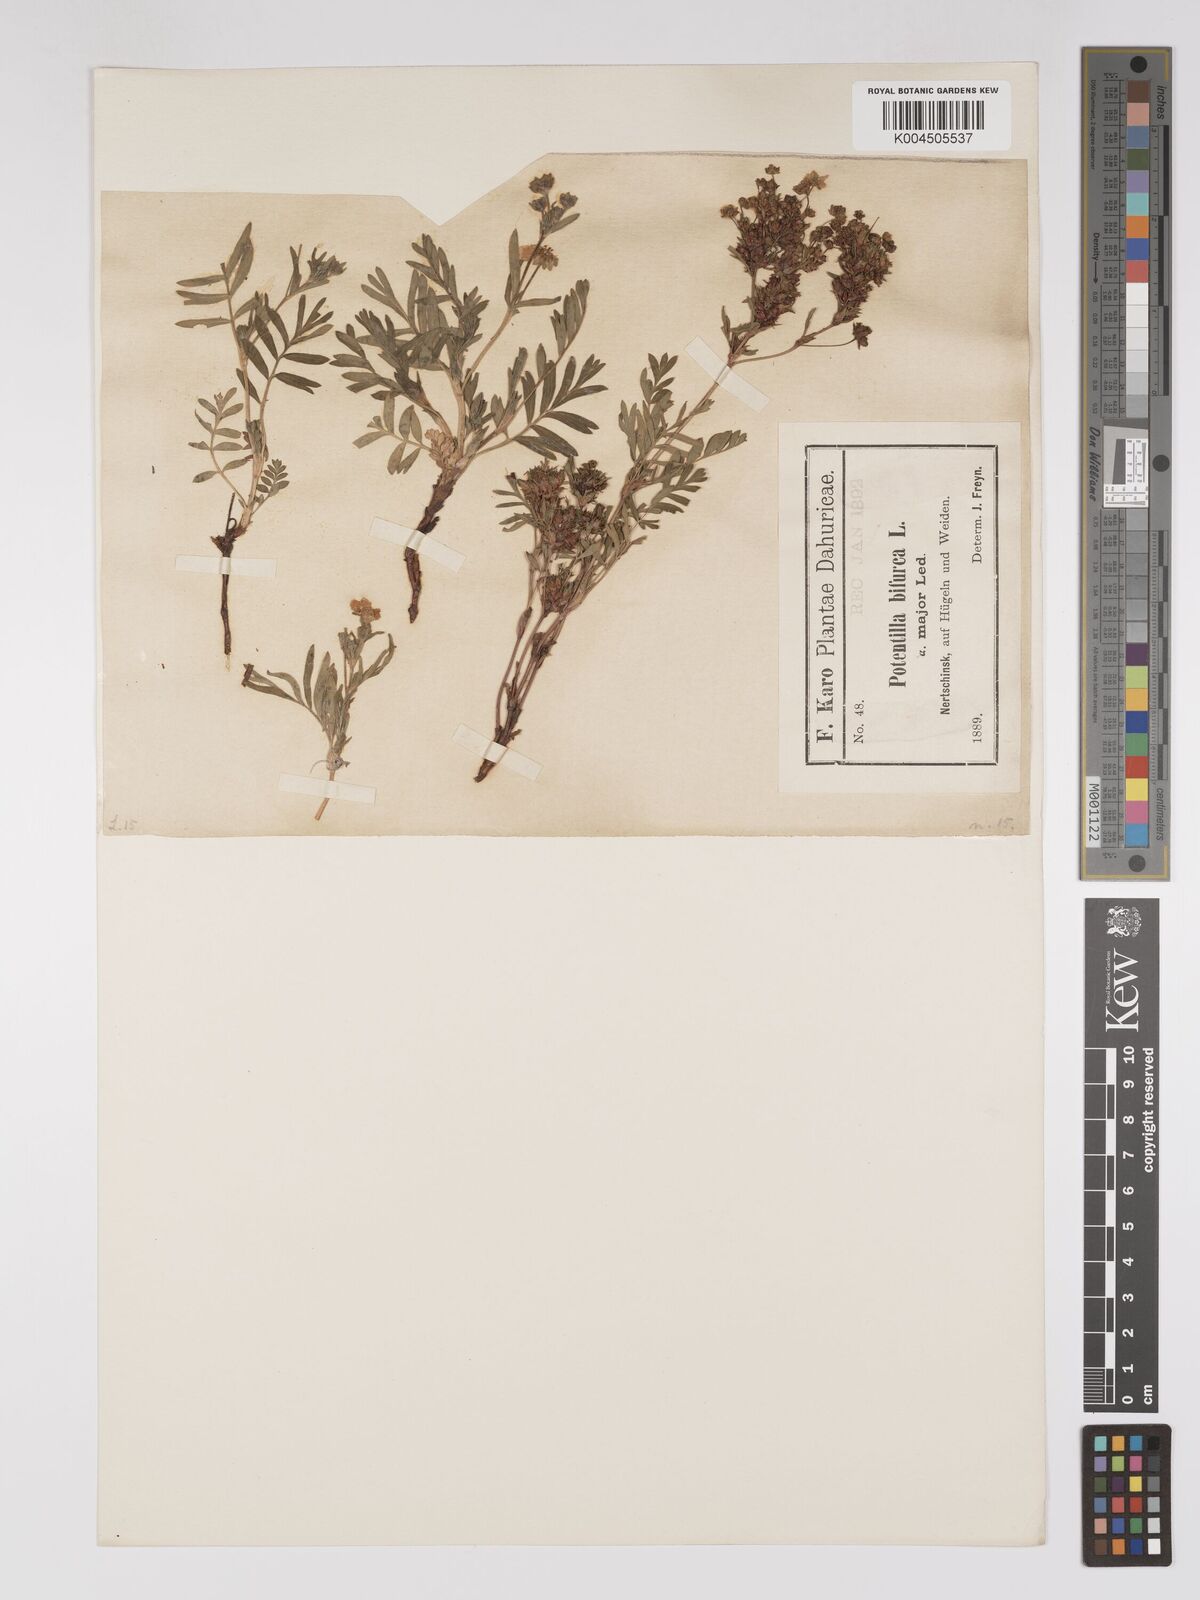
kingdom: Plantae
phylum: Tracheophyta
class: Magnoliopsida
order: Rosales
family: Rosaceae
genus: Sibbaldianthe
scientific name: Sibbaldianthe bifurca
